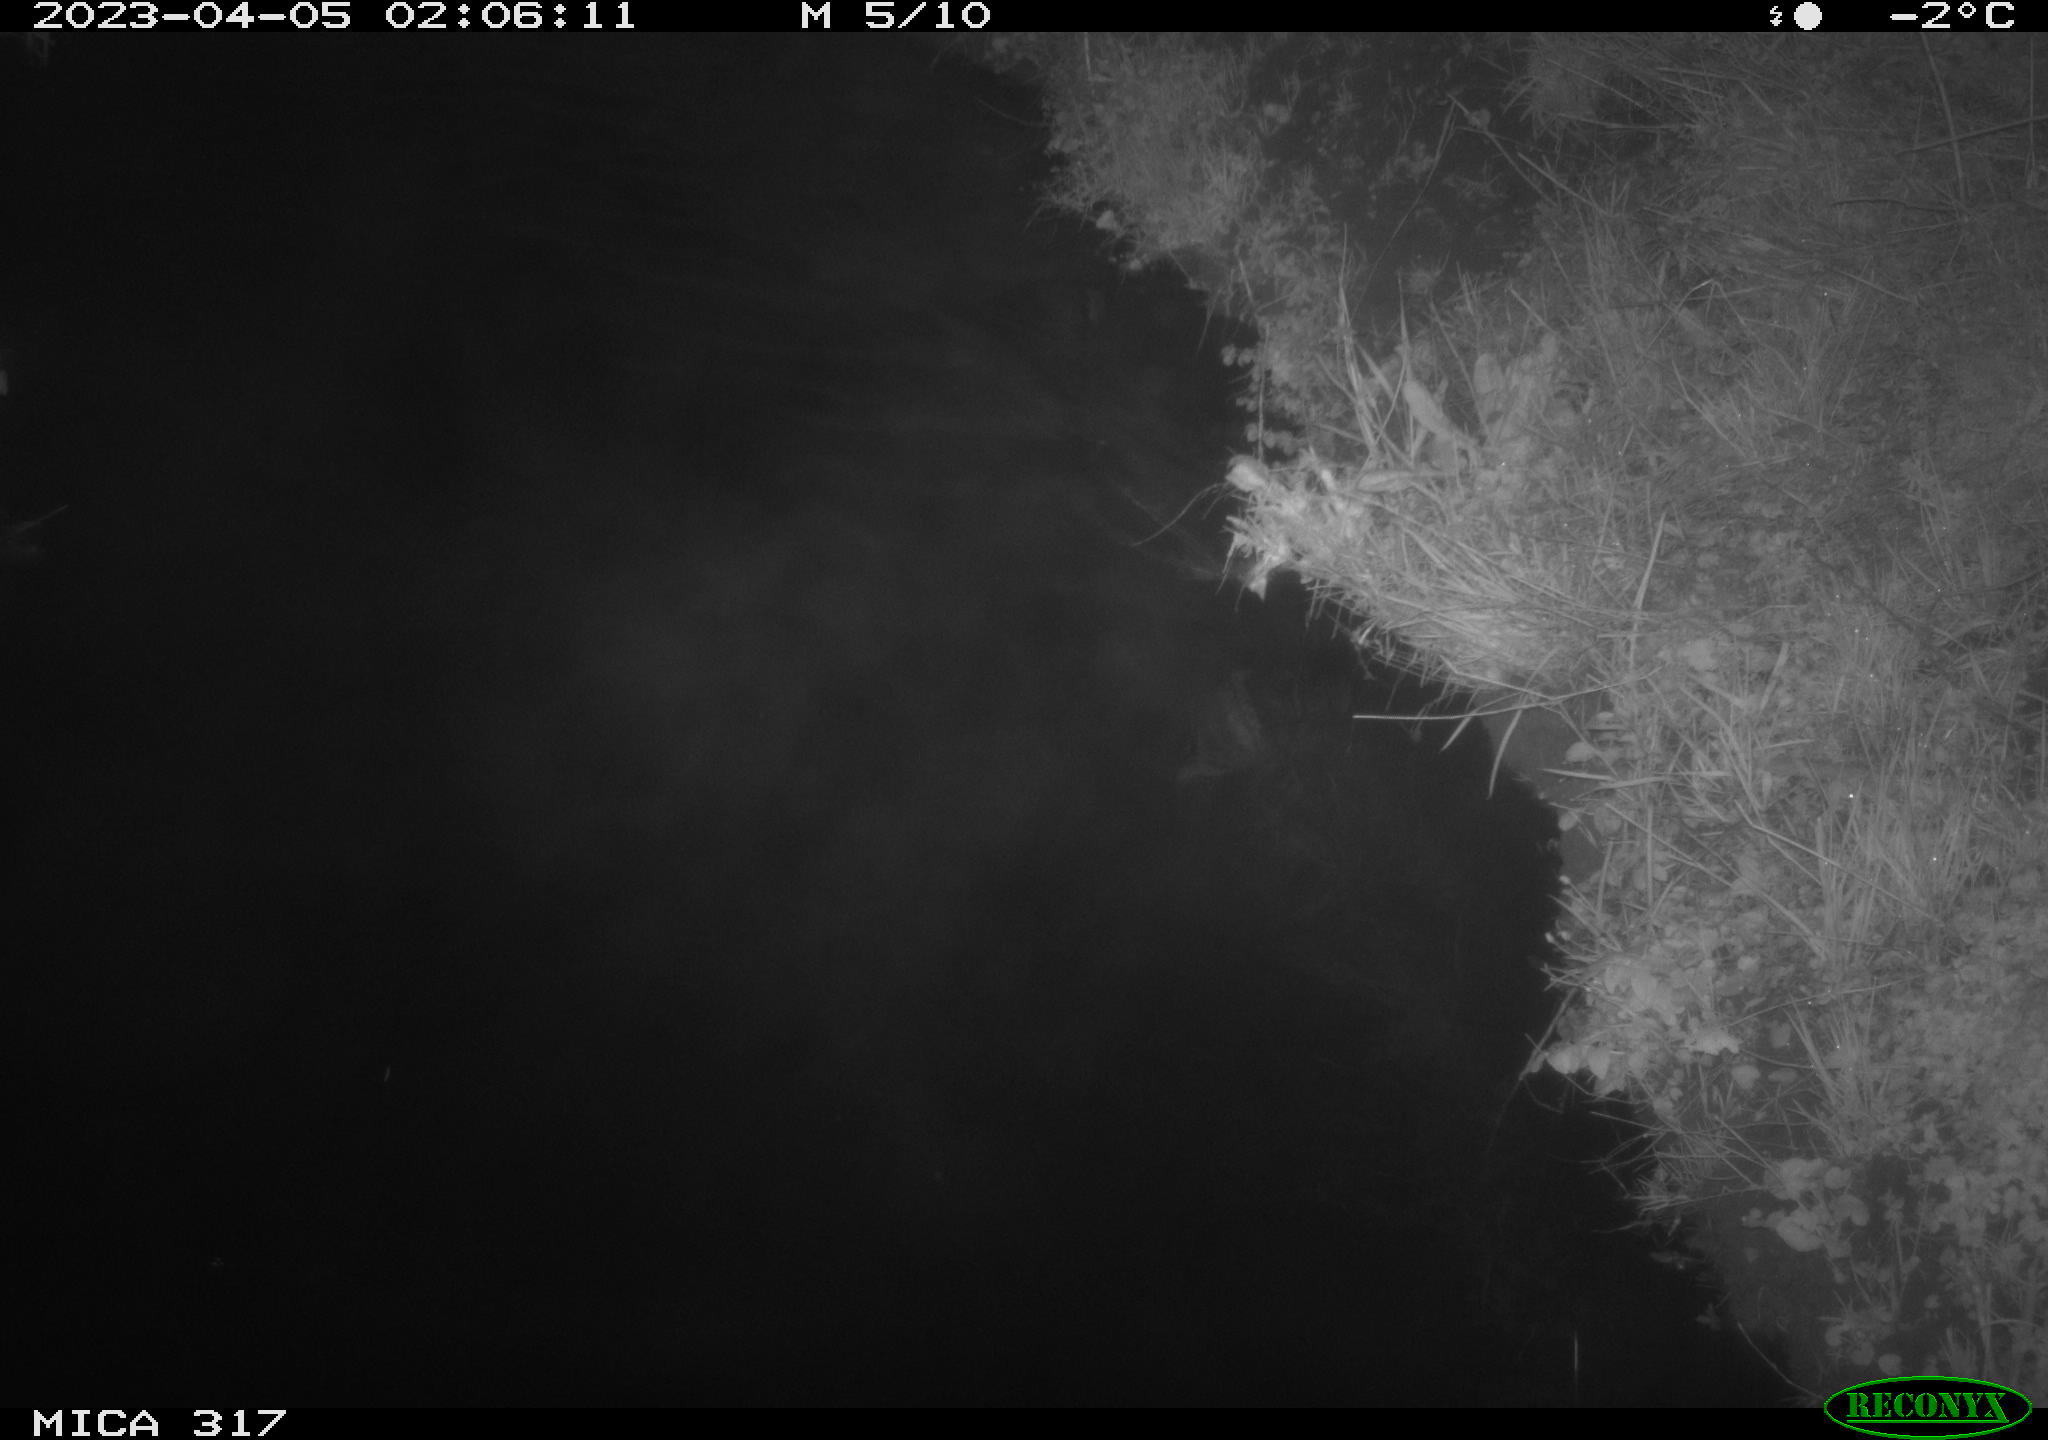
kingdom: Animalia
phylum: Chordata
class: Aves
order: Anseriformes
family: Anatidae
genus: Anas
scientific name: Anas
